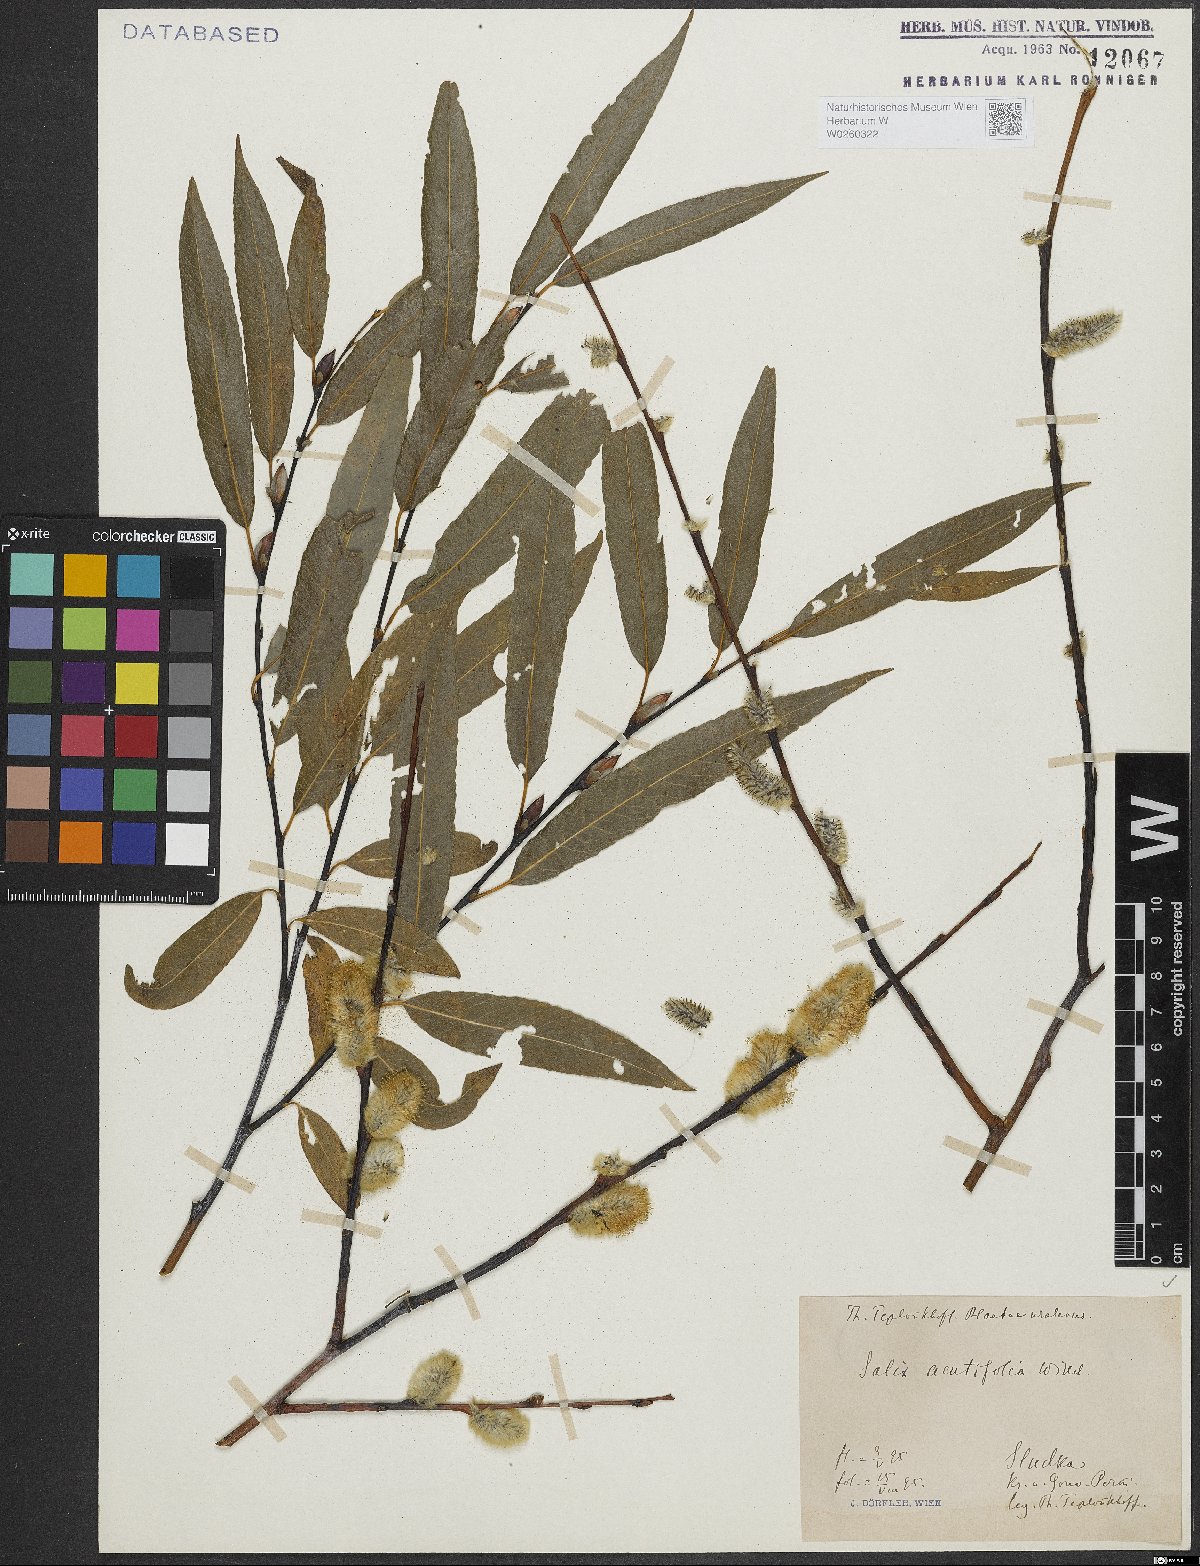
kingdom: Plantae
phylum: Tracheophyta
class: Magnoliopsida
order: Malpighiales
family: Salicaceae
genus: Salix
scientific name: Salix acutifolia
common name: Siberian violet-willow
